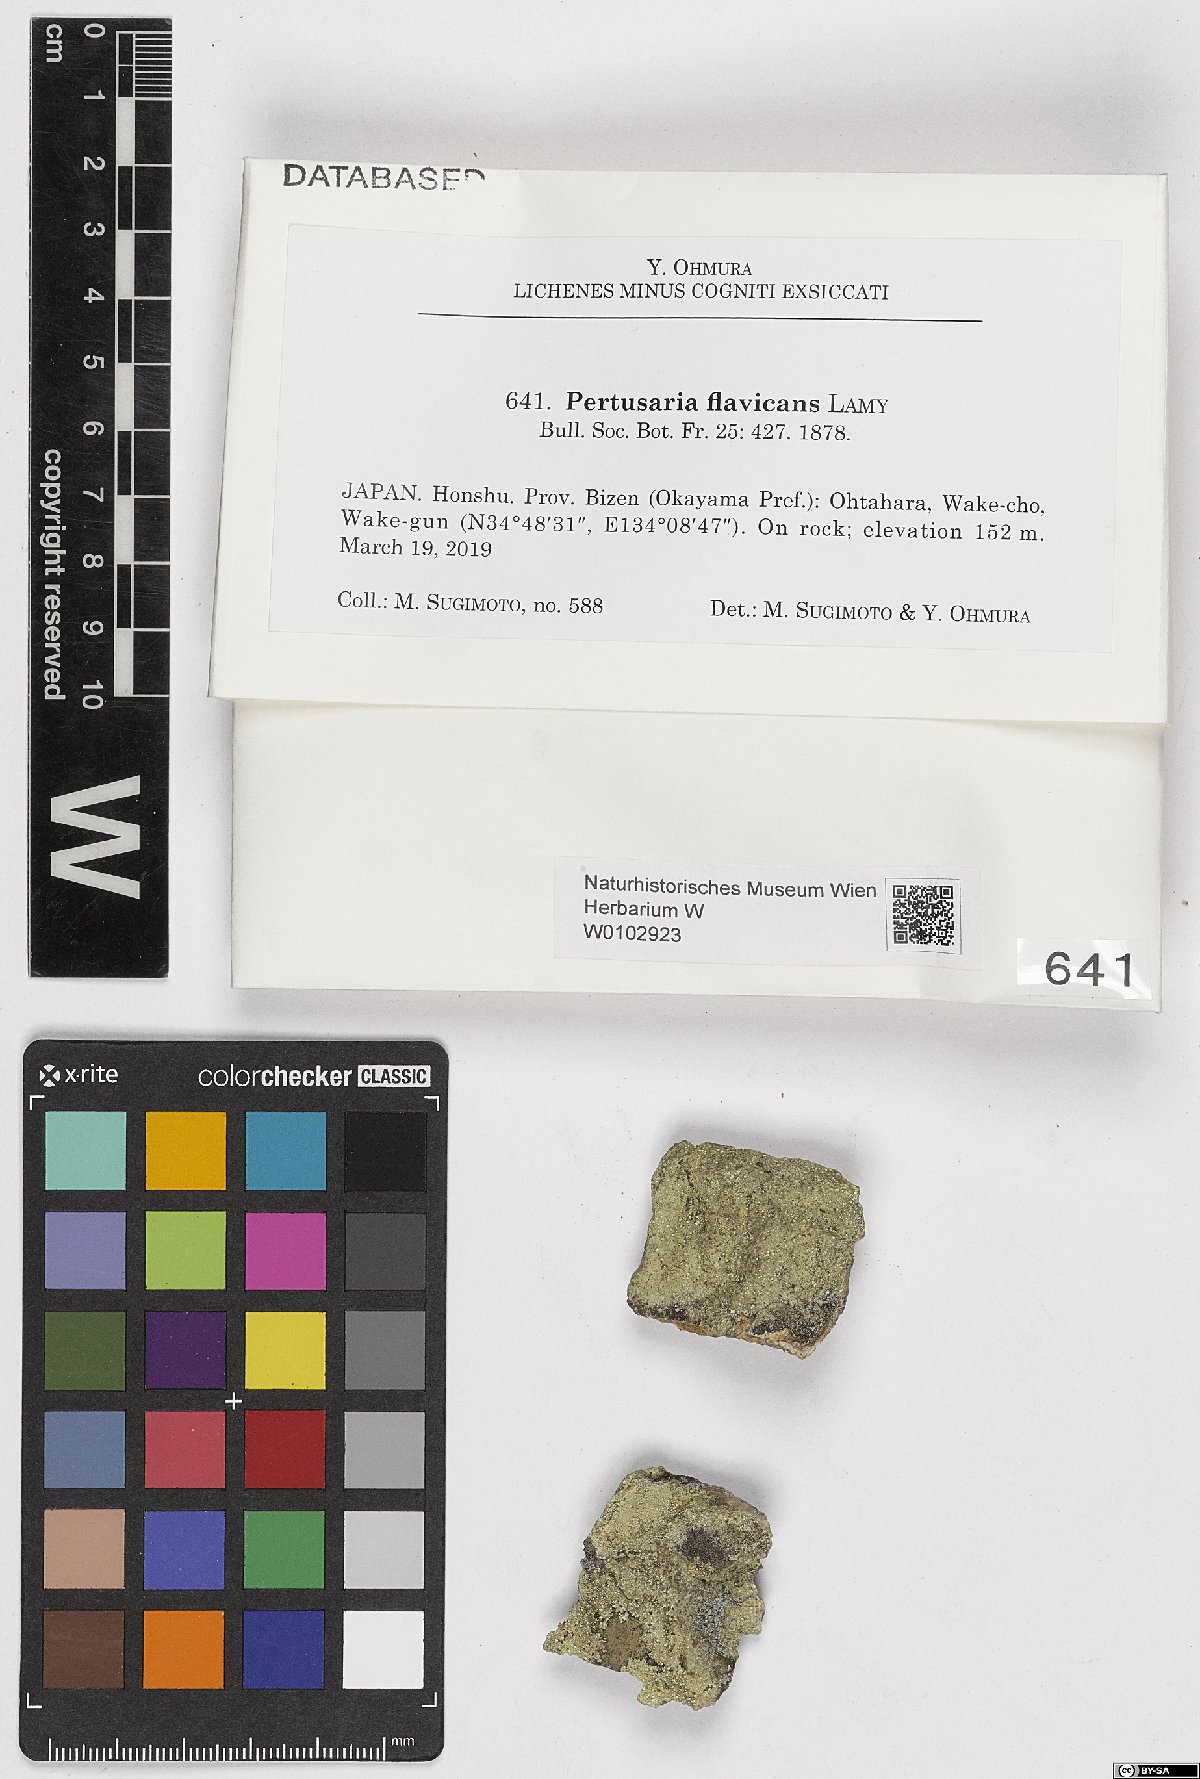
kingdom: Fungi
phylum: Ascomycota
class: Lecanoromycetes
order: Pertusariales
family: Pertusariaceae
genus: Pertusaria
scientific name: Pertusaria flavicans
